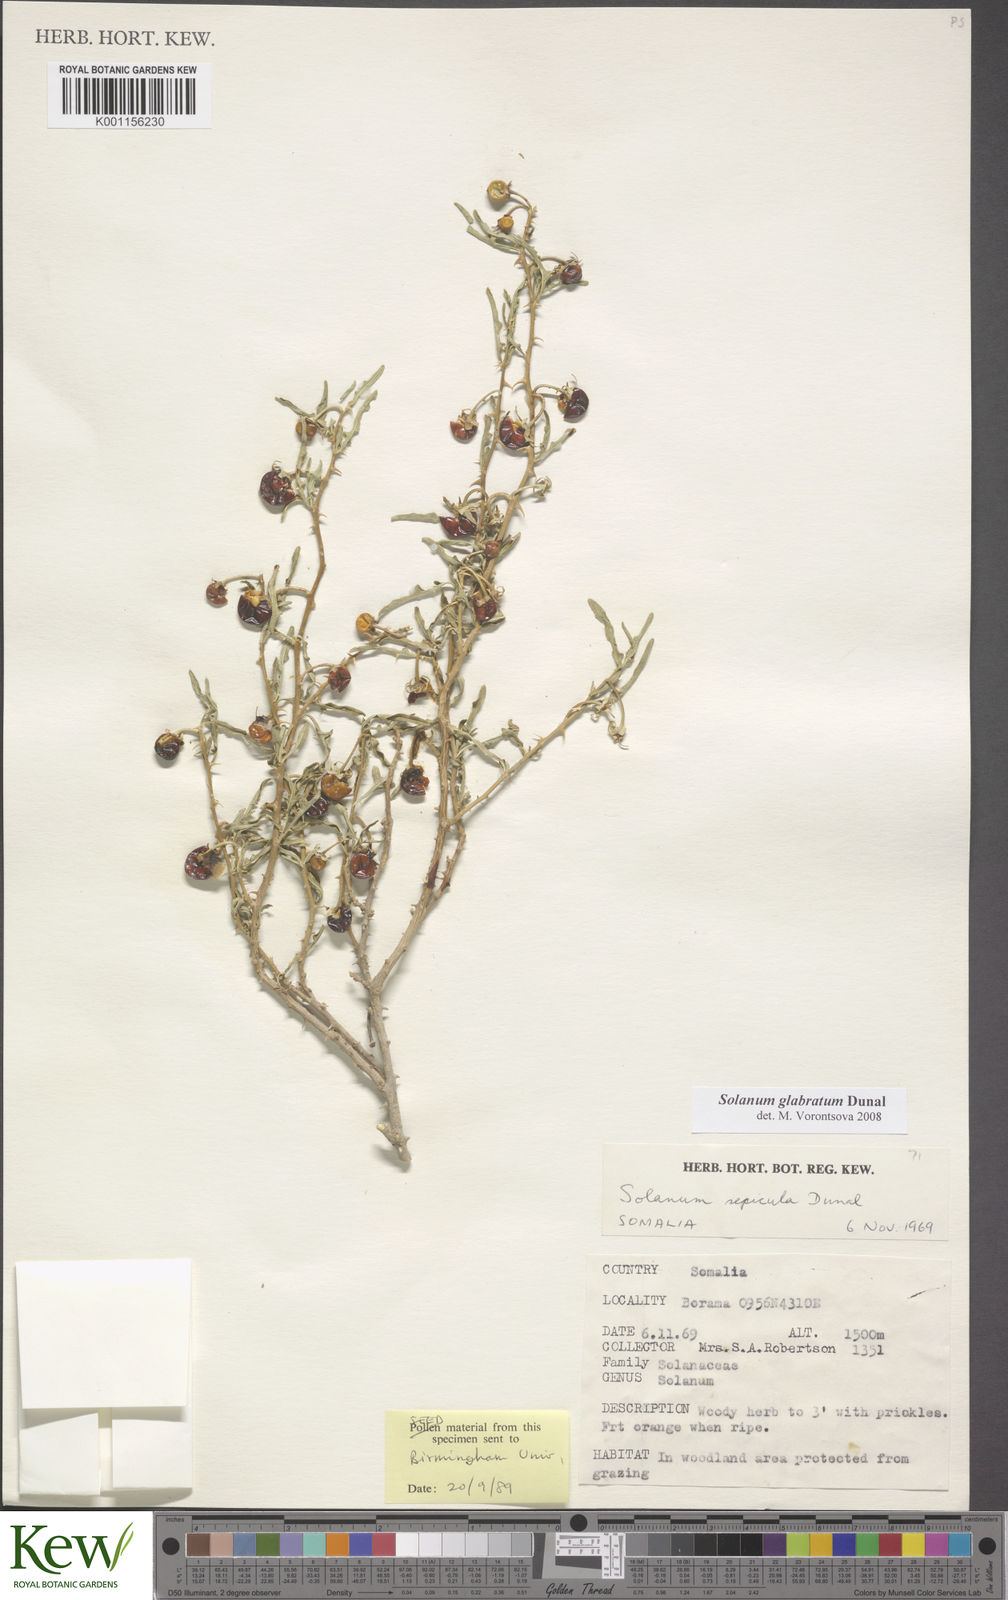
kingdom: Plantae
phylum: Tracheophyta
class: Magnoliopsida
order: Solanales
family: Solanaceae
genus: Solanum
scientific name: Solanum glabratum
